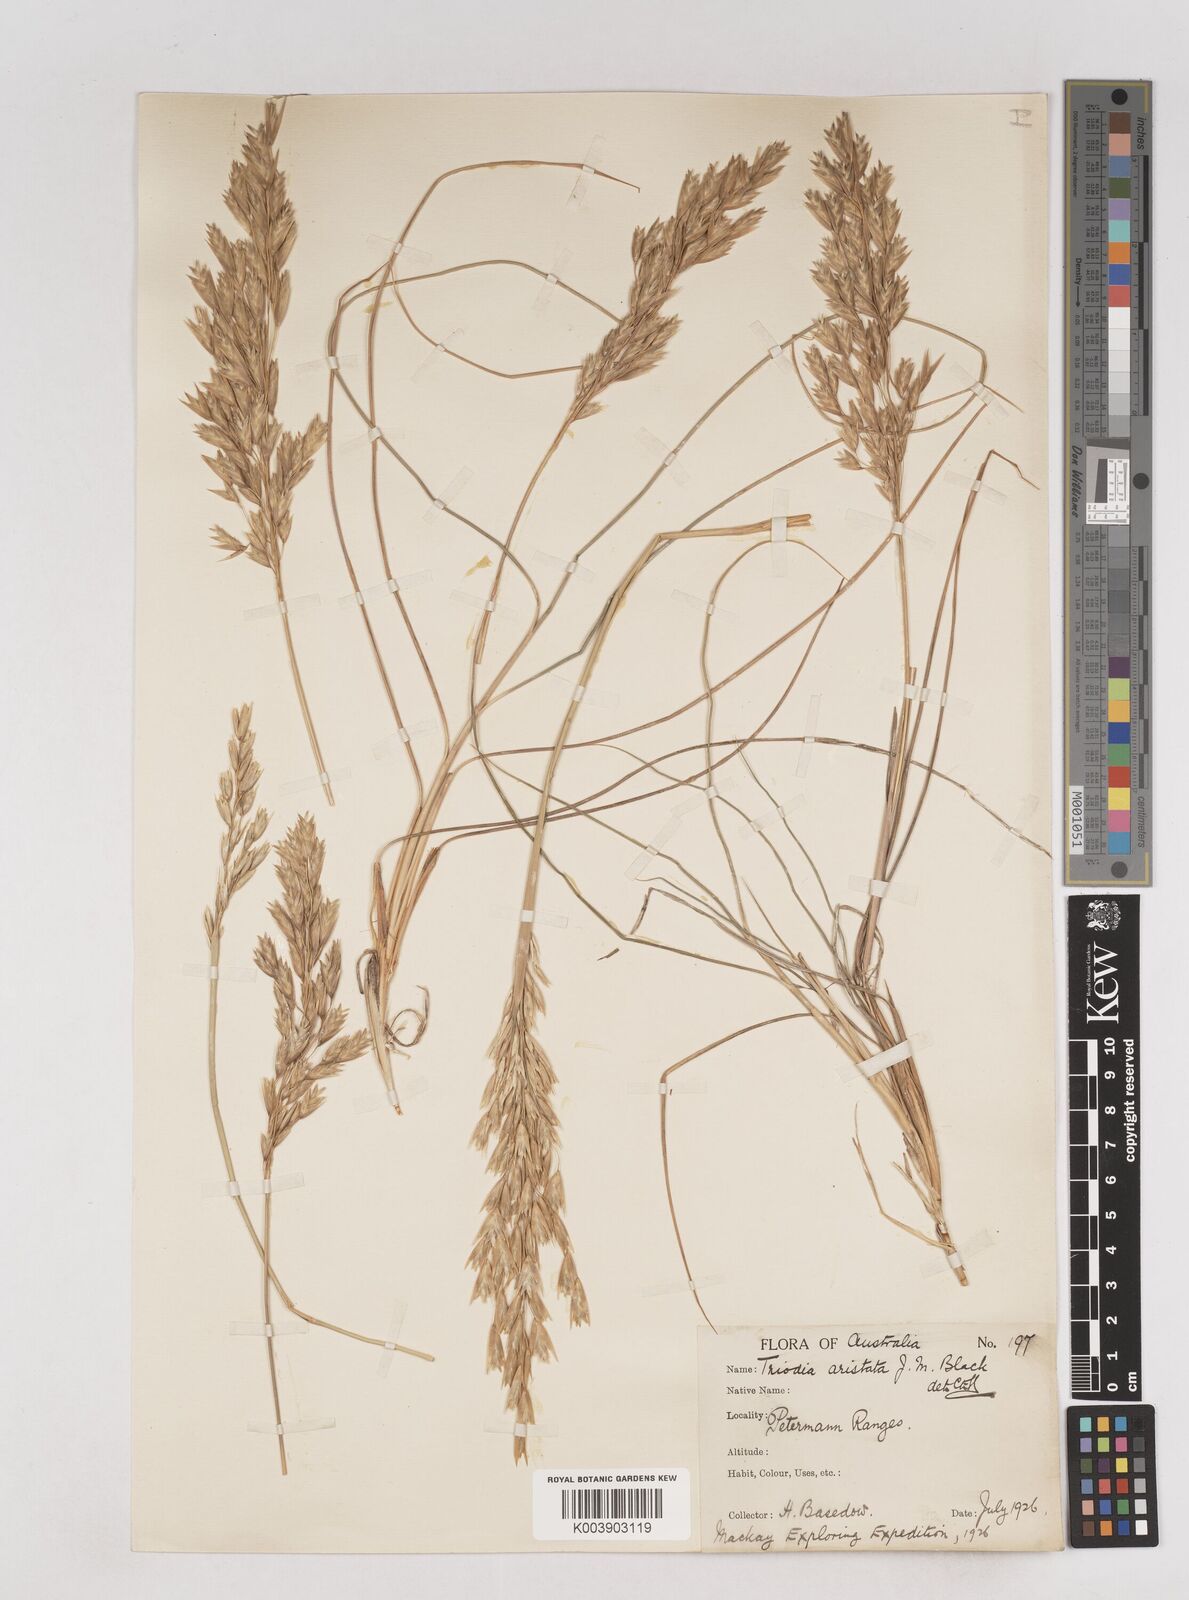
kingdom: Plantae
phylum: Tracheophyta
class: Liliopsida
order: Poales
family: Poaceae
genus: Triodia
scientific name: Triodia irritans
